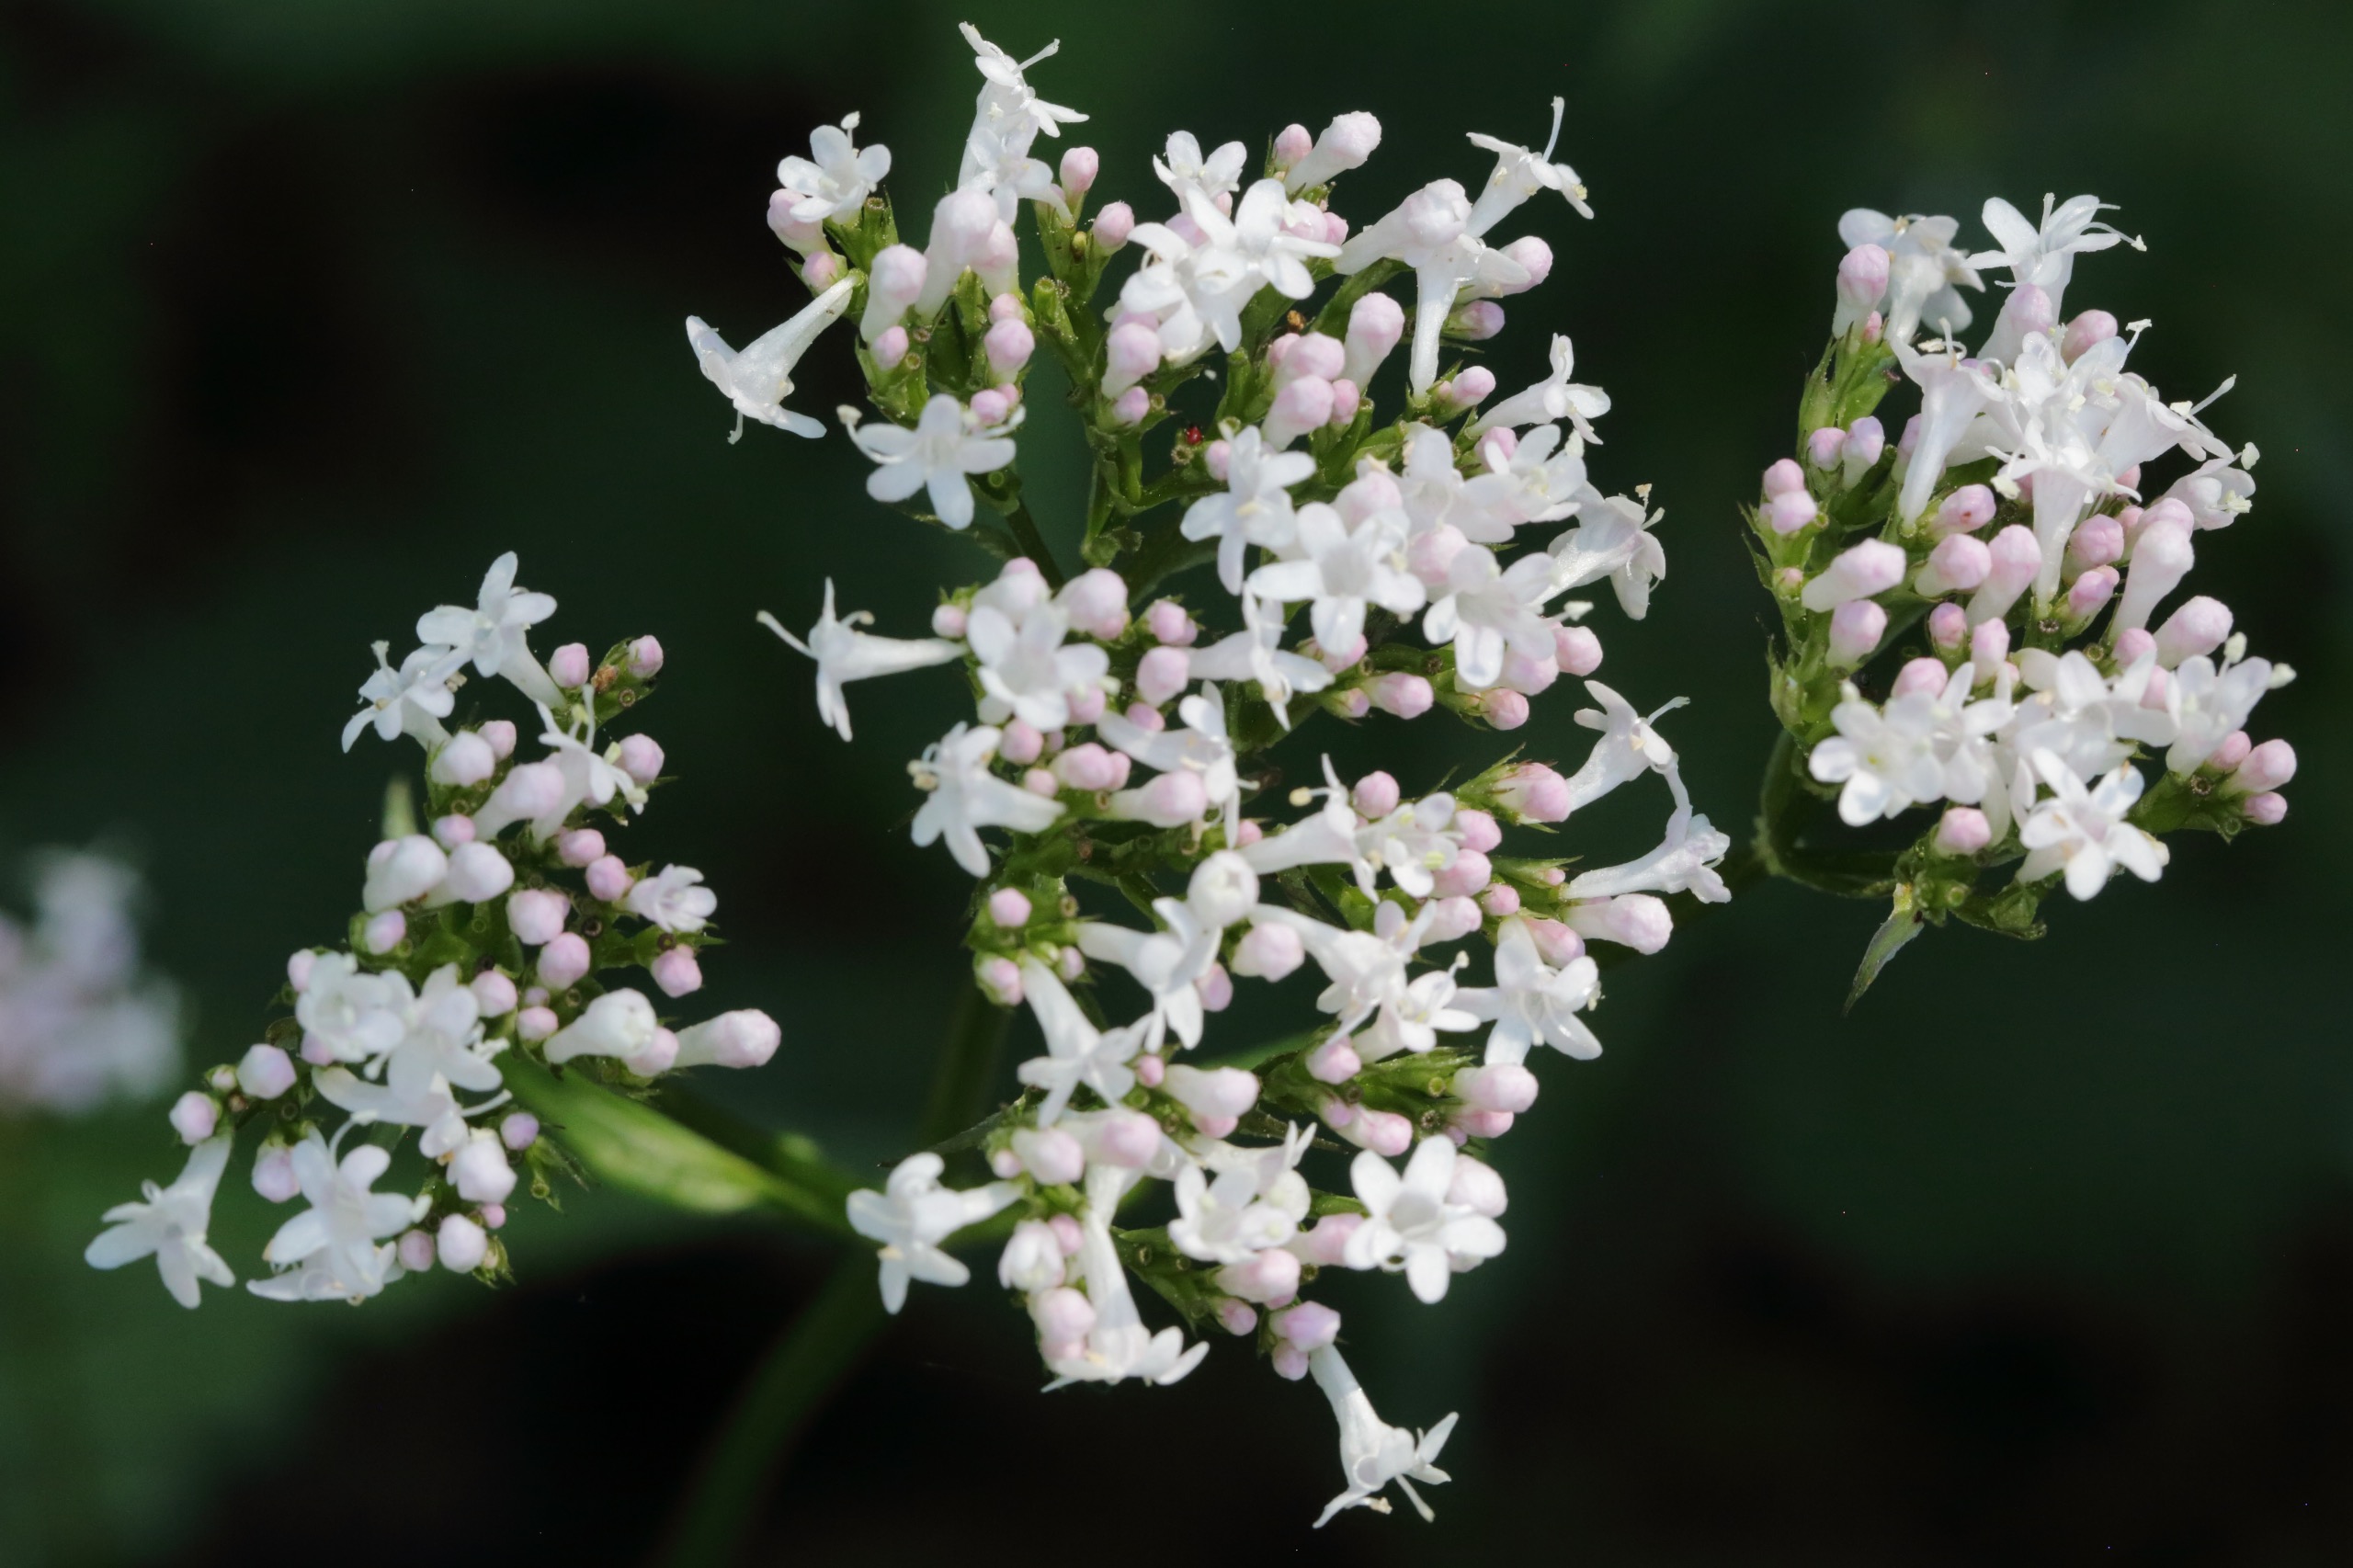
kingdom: Plantae
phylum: Tracheophyta
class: Magnoliopsida
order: Dipsacales
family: Caprifoliaceae
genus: Valeriana
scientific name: Valeriana sambucifolia
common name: Hyldebladet baldrian
